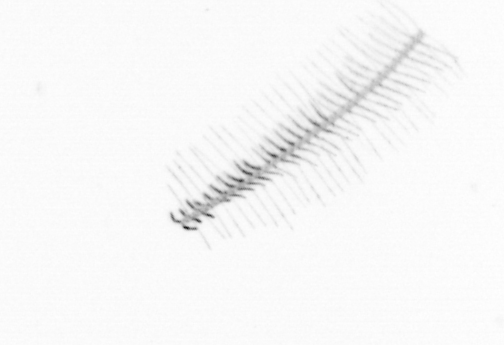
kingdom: Chromista
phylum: Ochrophyta
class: Bacillariophyceae
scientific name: Bacillariophyceae
